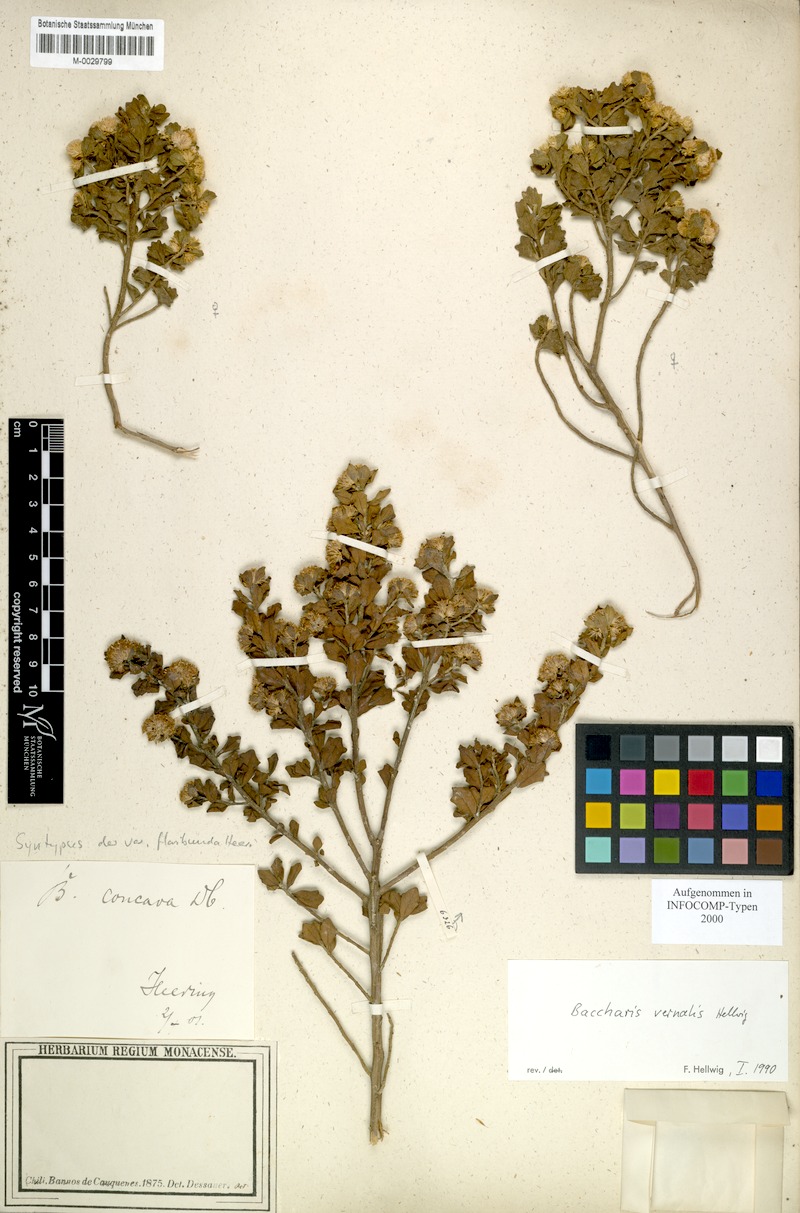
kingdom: Plantae
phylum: Tracheophyta
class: Magnoliopsida
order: Asterales
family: Asteraceae
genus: Baccharis
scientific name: Baccharis vernalis
